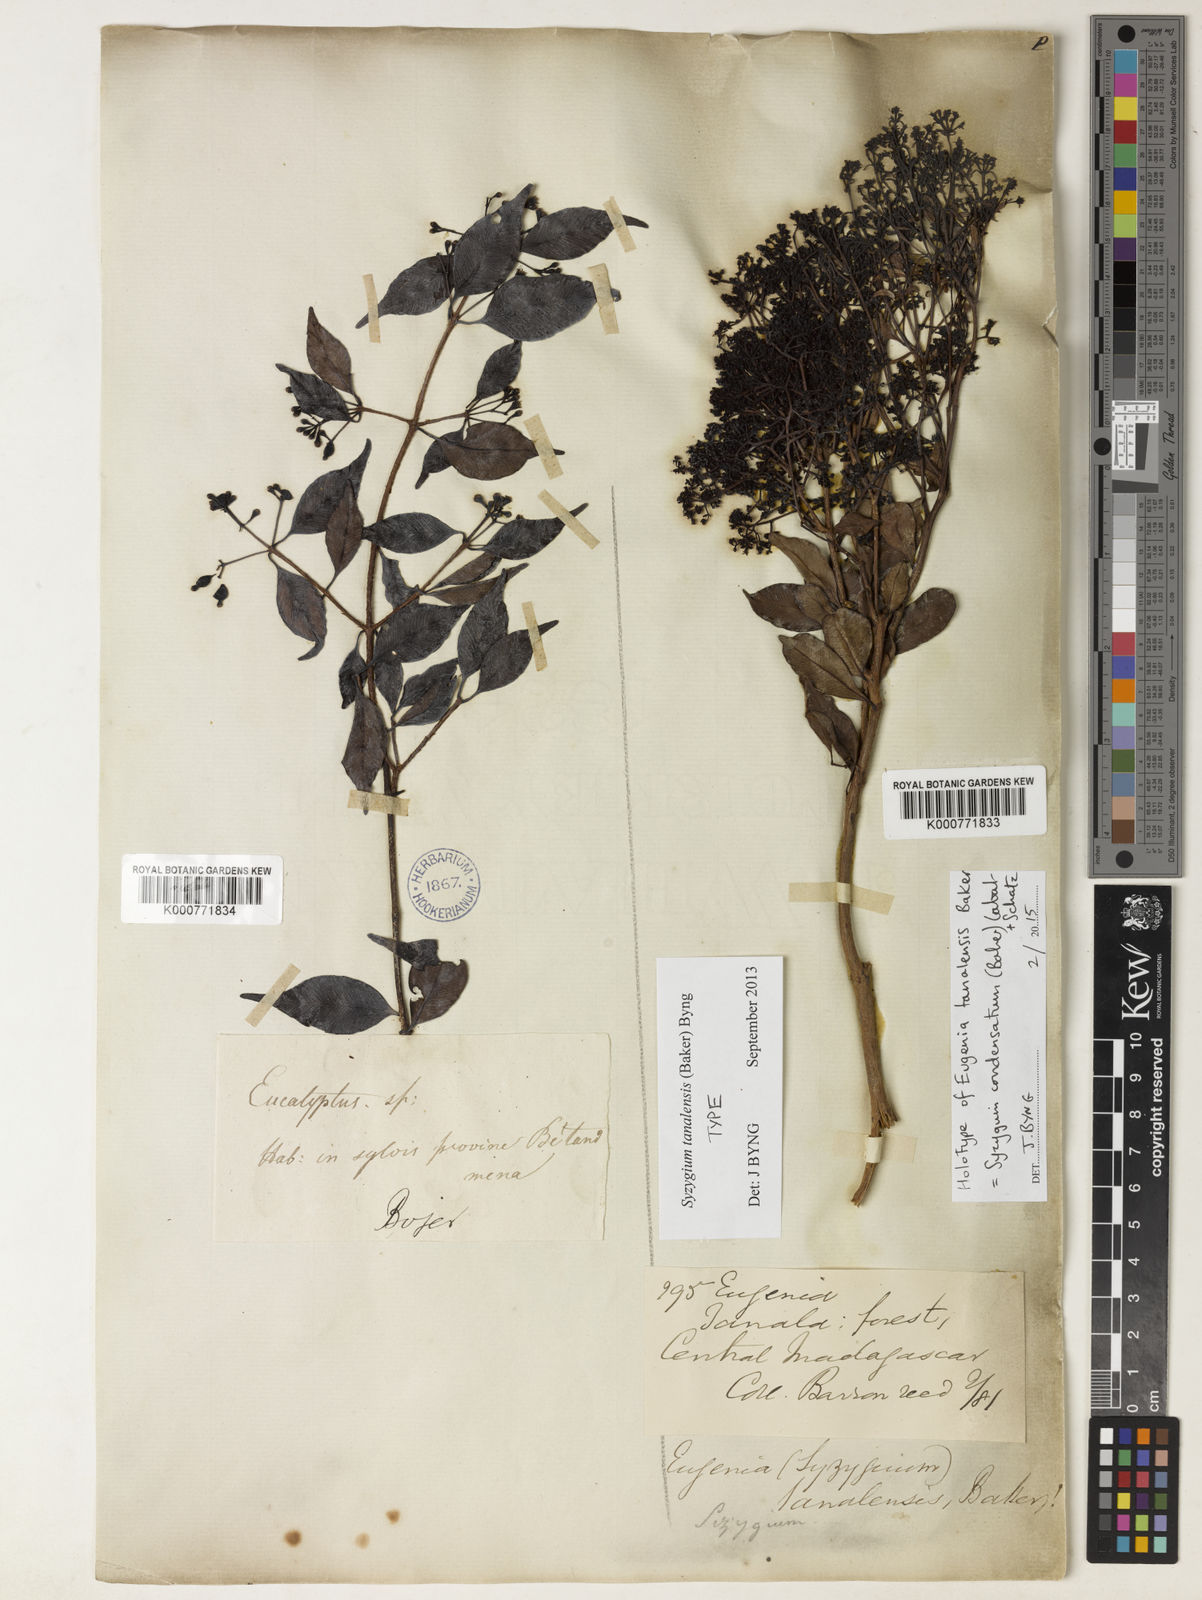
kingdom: Plantae
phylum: Tracheophyta
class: Magnoliopsida
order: Myrtales
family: Myrtaceae
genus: Eugenia
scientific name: Eugenia tanalensis
